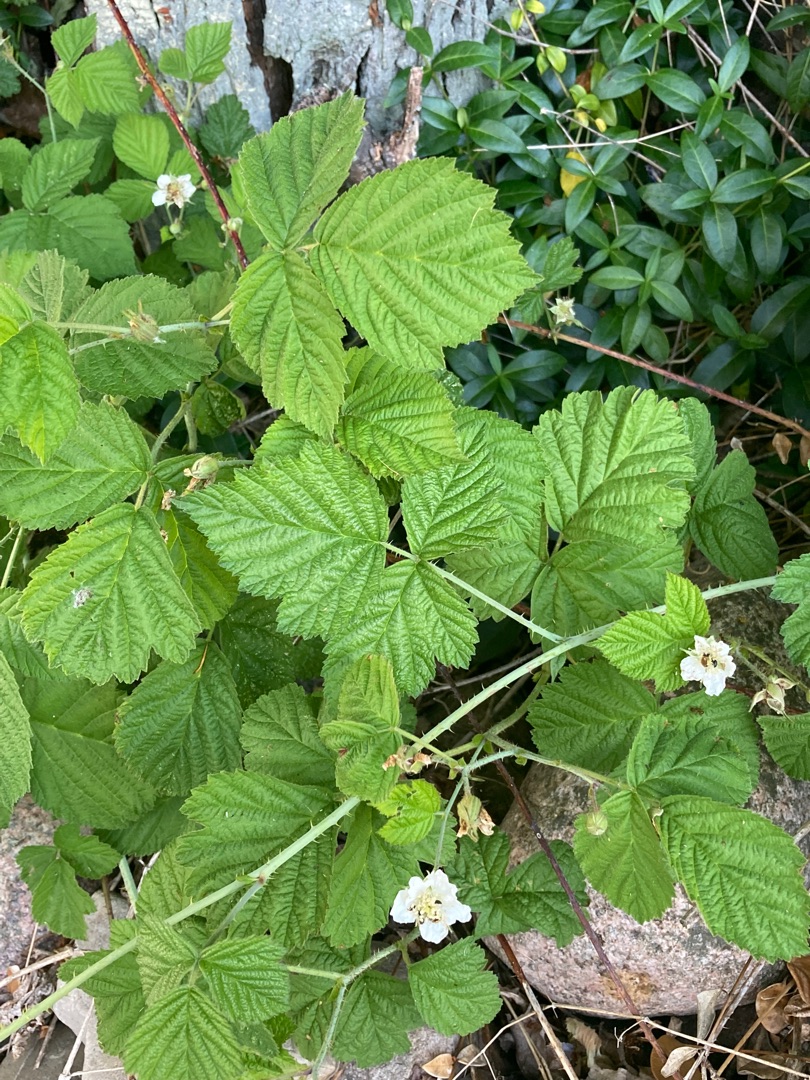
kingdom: Plantae
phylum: Tracheophyta
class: Magnoliopsida
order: Rosales
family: Rosaceae
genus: Rubus
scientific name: Rubus caesius
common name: Korbær
